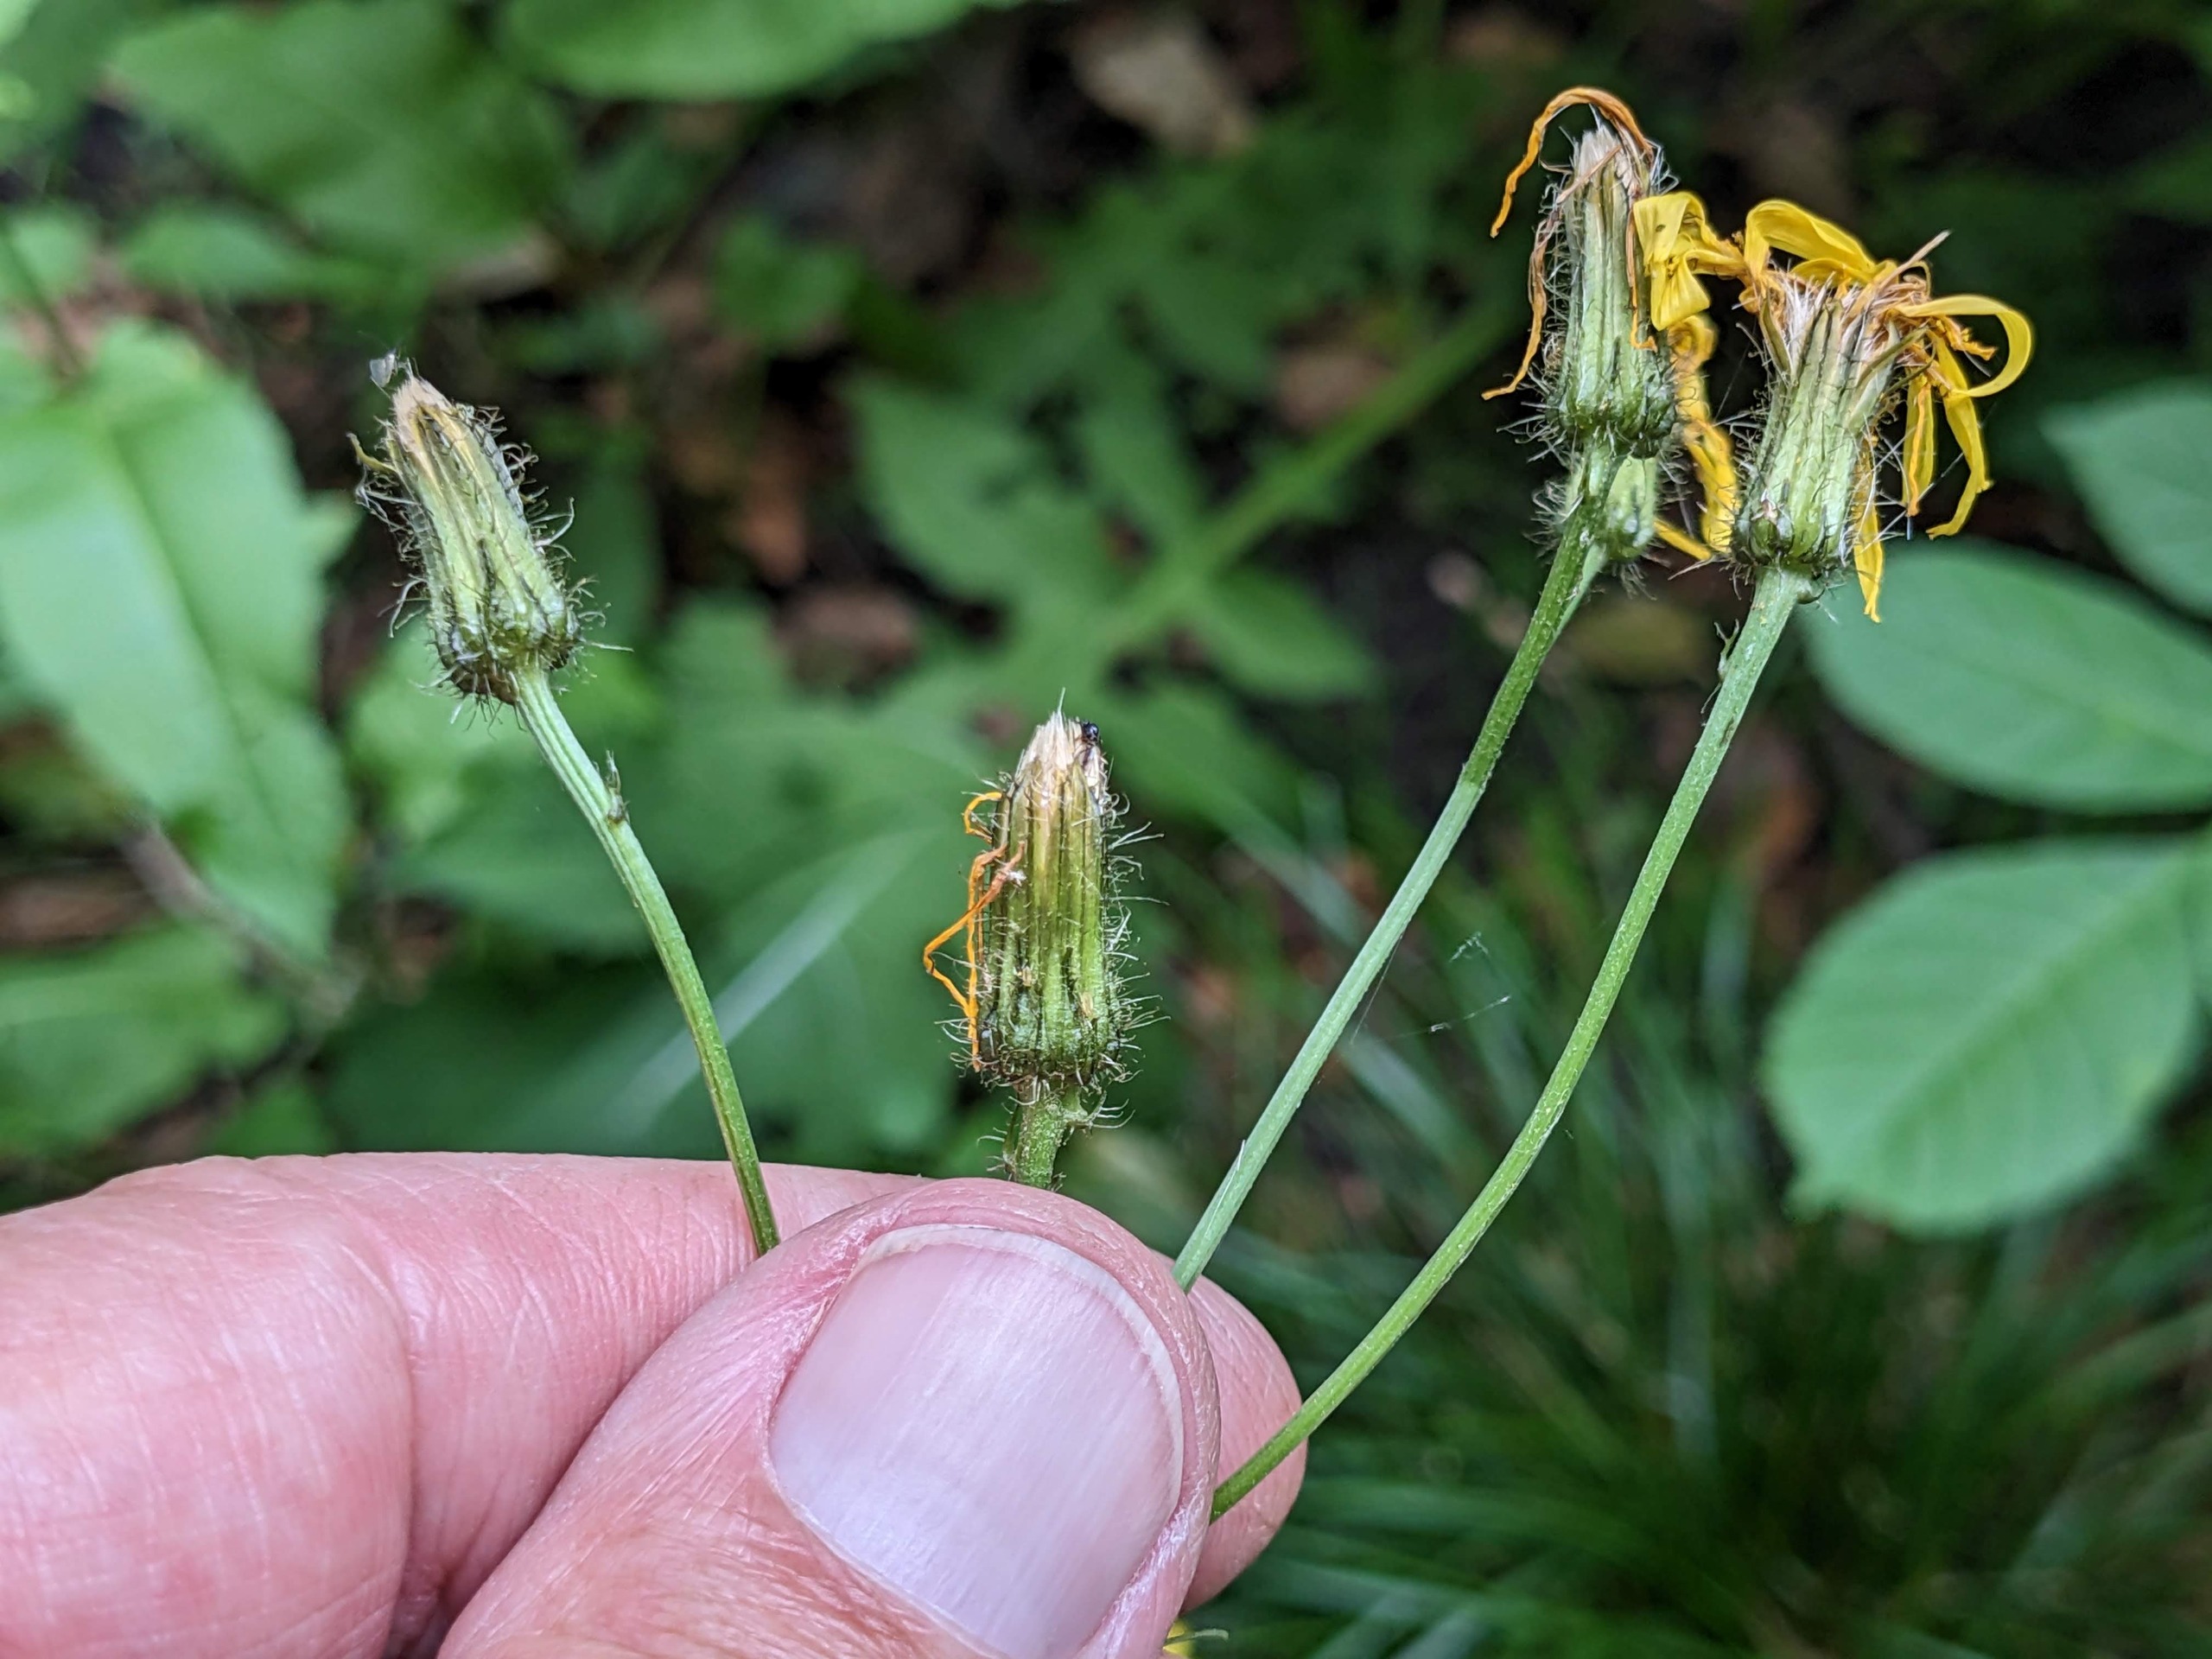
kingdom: Plantae
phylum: Tracheophyta
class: Magnoliopsida
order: Asterales
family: Asteraceae
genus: Crepis
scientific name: Crepis paludosa
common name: Kær-høgeskæg
